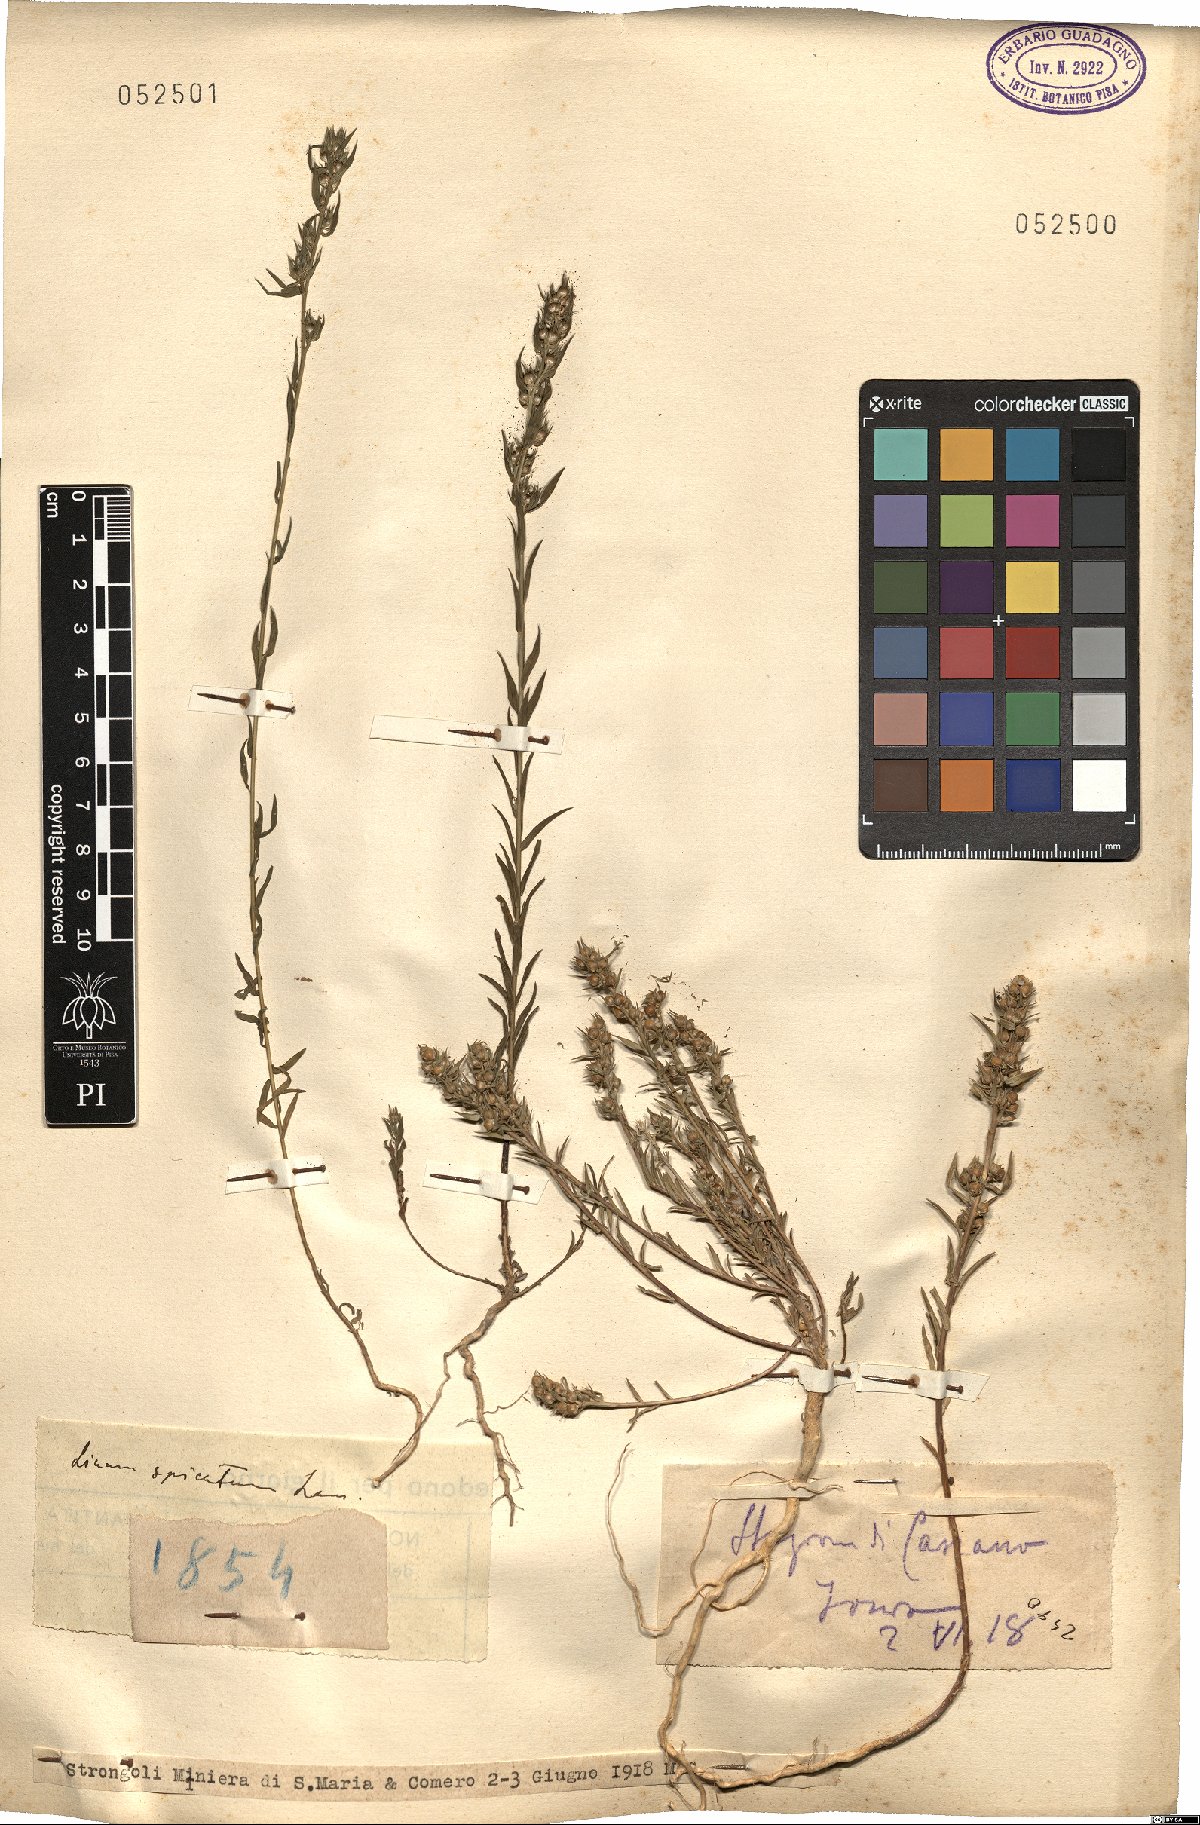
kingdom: Plantae
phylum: Tracheophyta
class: Magnoliopsida
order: Malpighiales
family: Linaceae
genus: Linum
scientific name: Linum strictum
